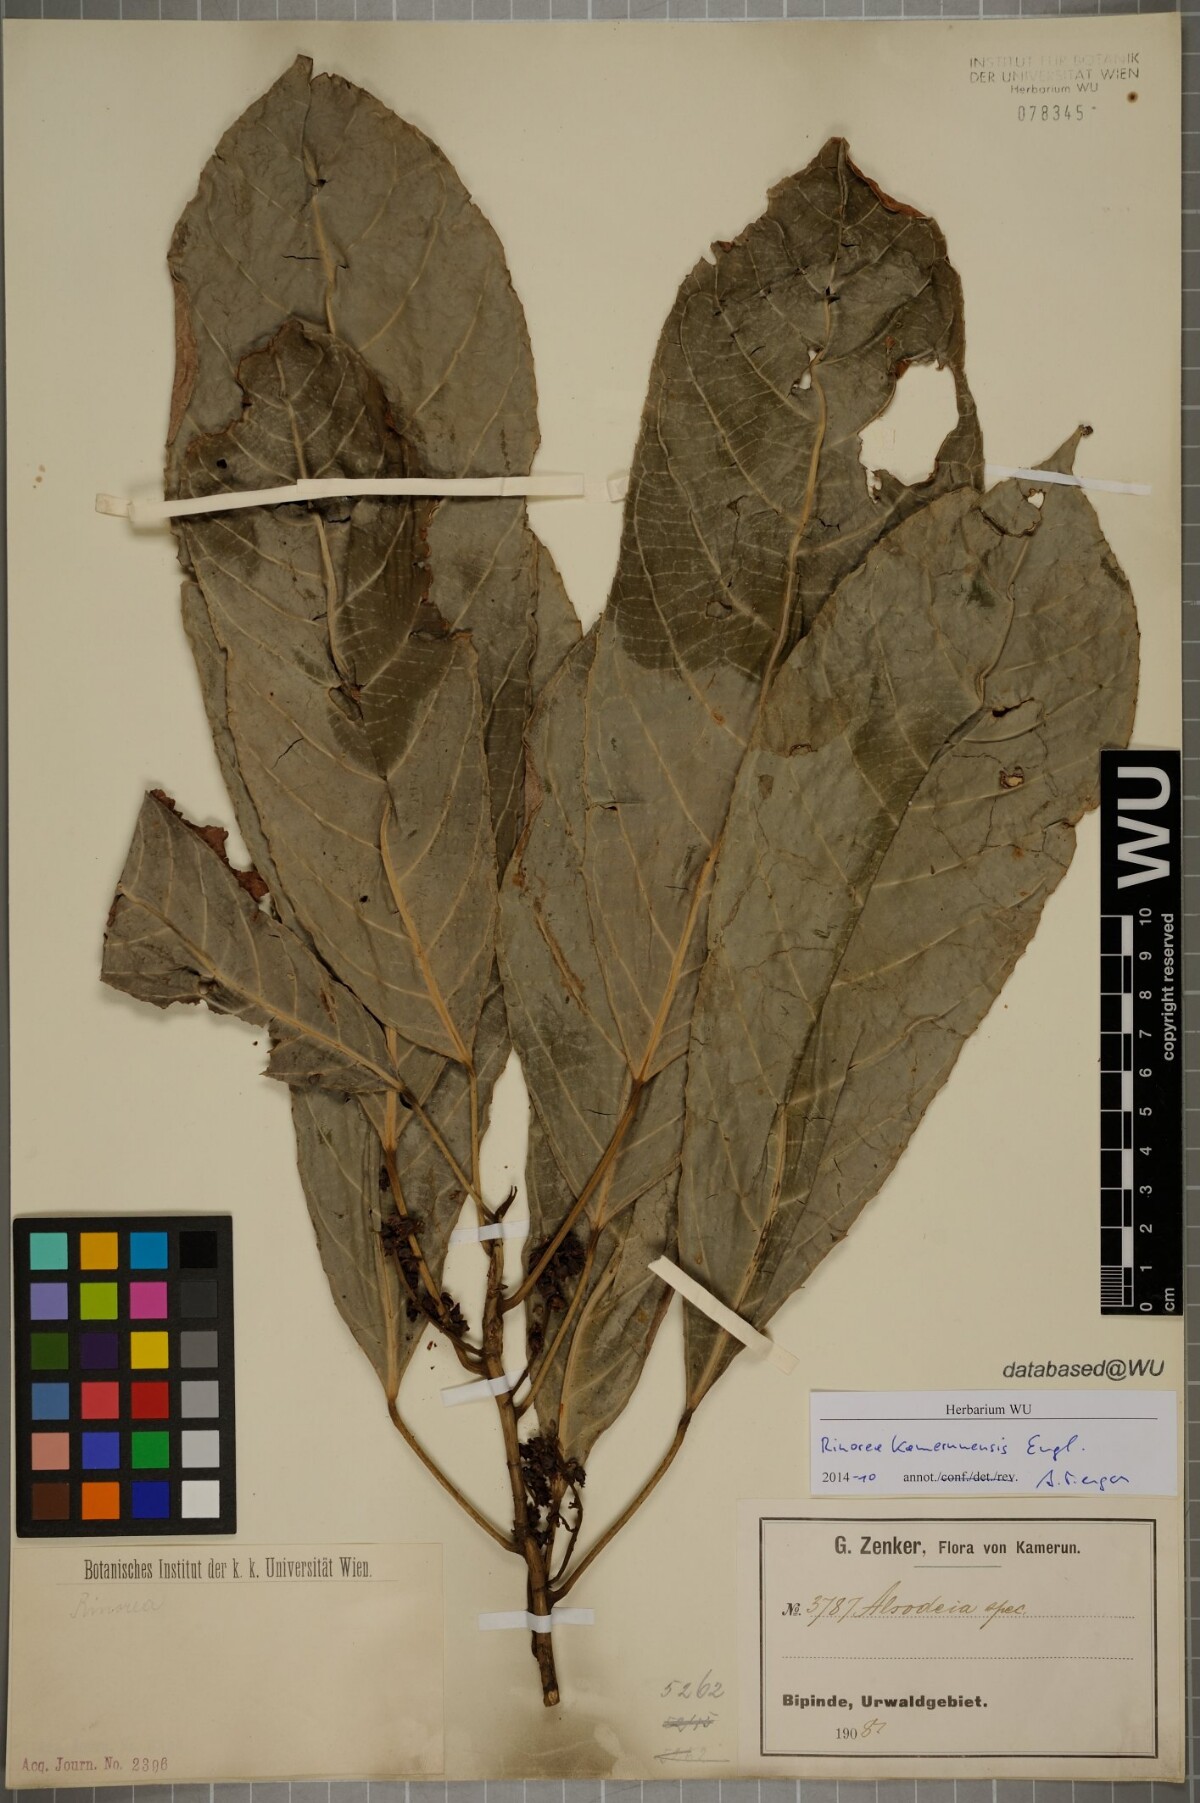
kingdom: Plantae
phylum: Tracheophyta
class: Magnoliopsida
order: Malpighiales
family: Violaceae
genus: Rinorea
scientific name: Rinorea welwitschii
